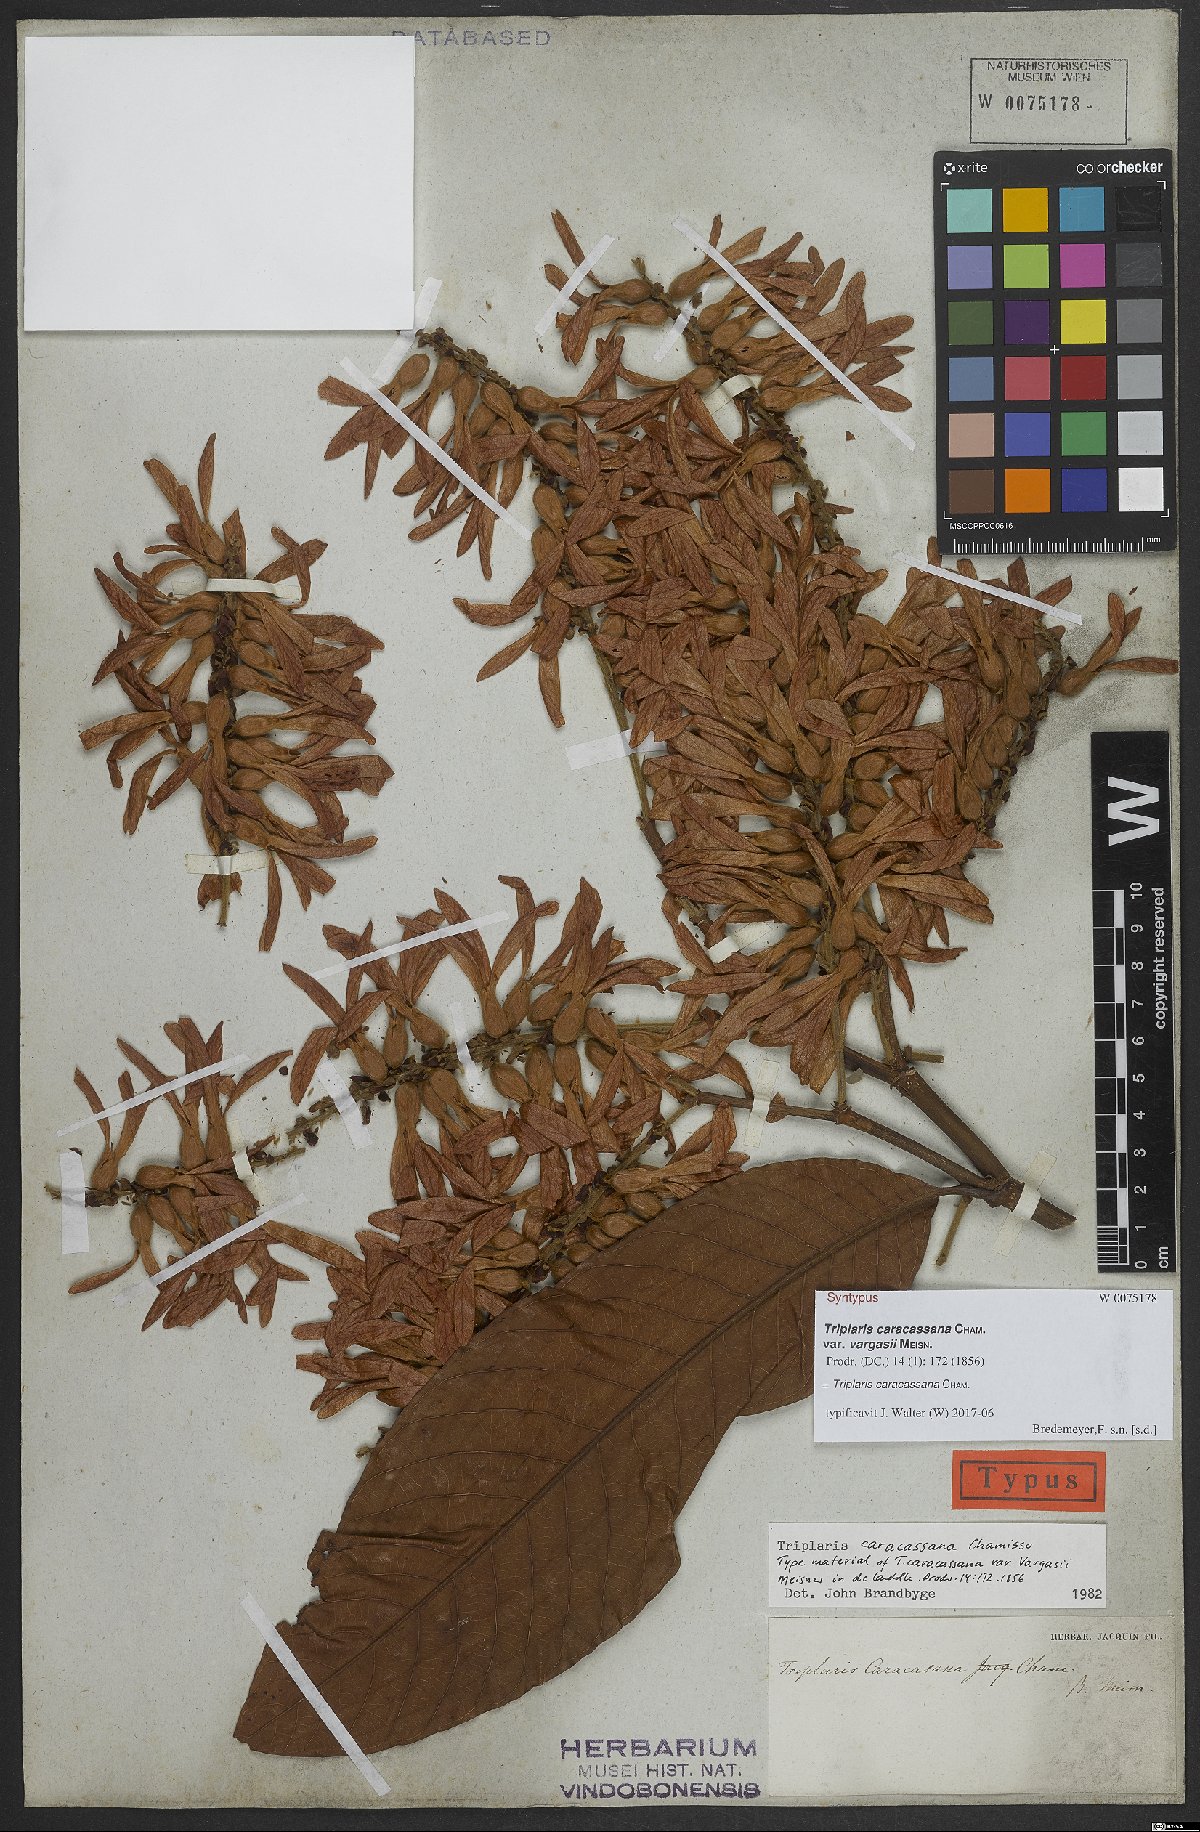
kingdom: Plantae
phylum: Tracheophyta
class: Magnoliopsida
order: Caryophyllales
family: Polygonaceae
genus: Triplaris
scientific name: Triplaris caracasana
